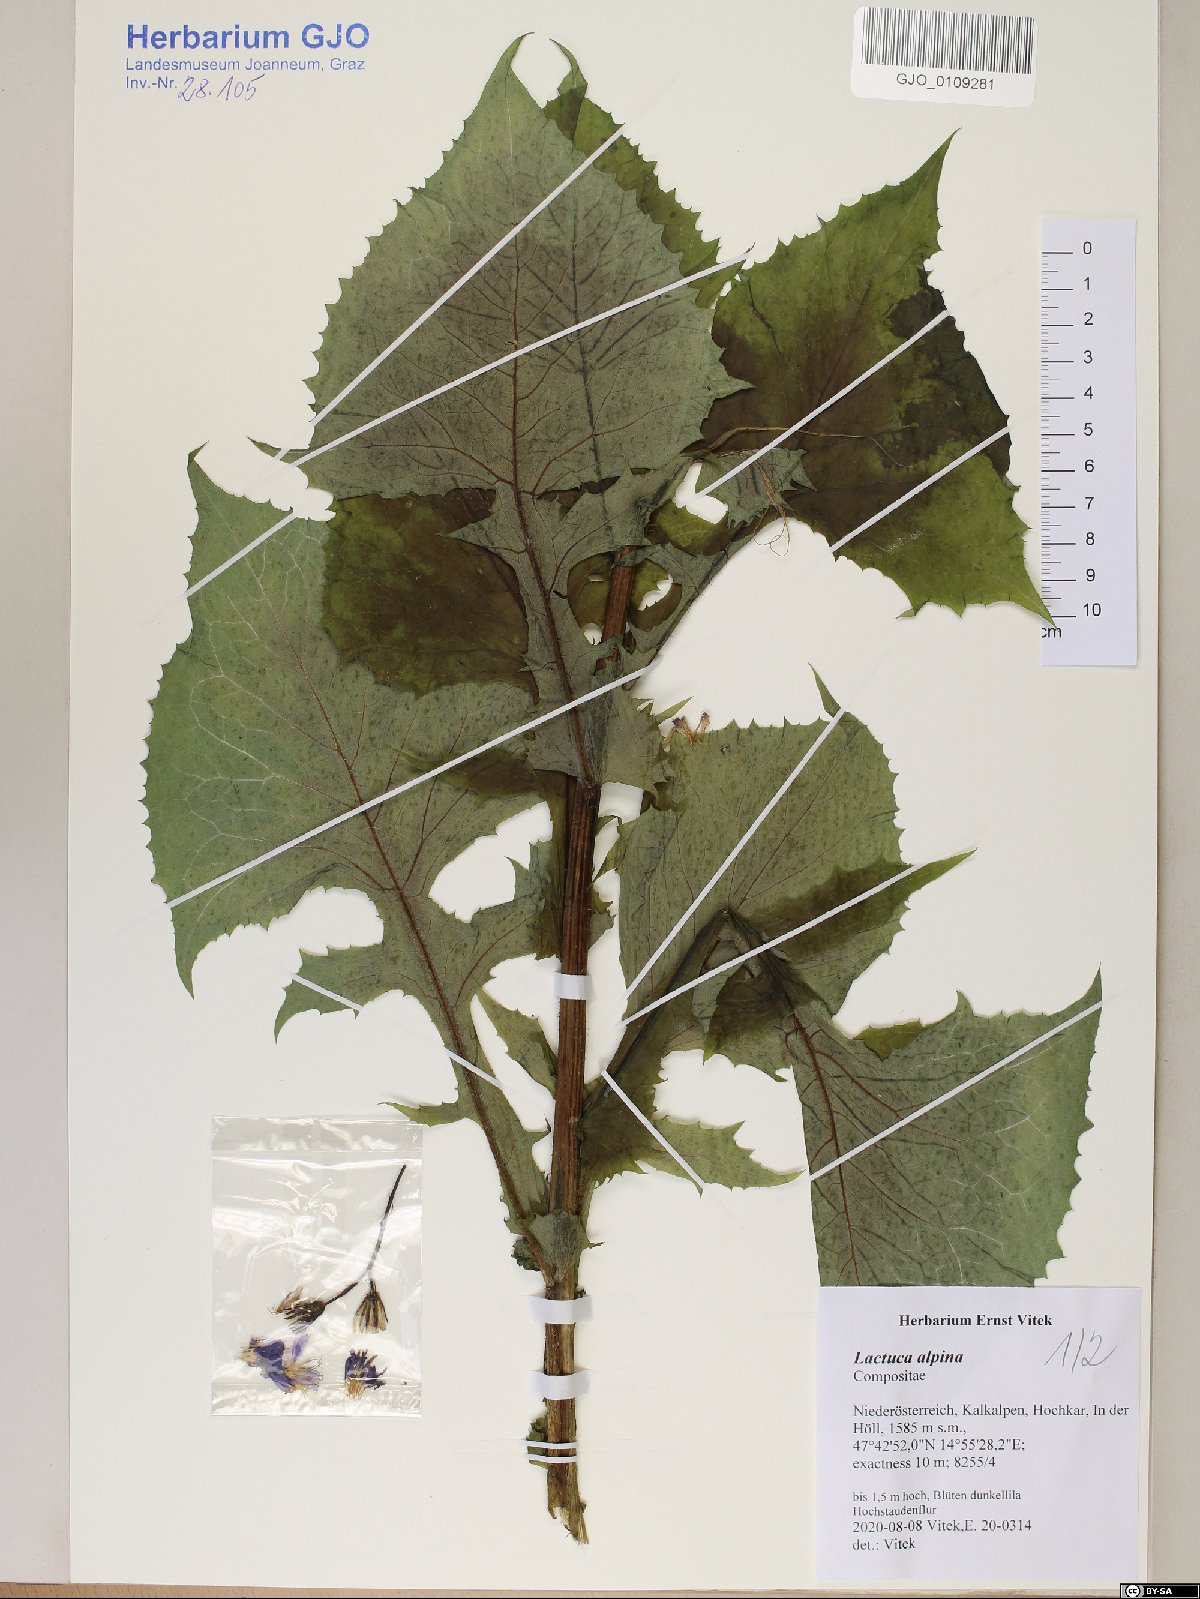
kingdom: Plantae
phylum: Tracheophyta
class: Magnoliopsida
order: Asterales
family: Asteraceae
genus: Lactuca
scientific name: Lactuca alpina
